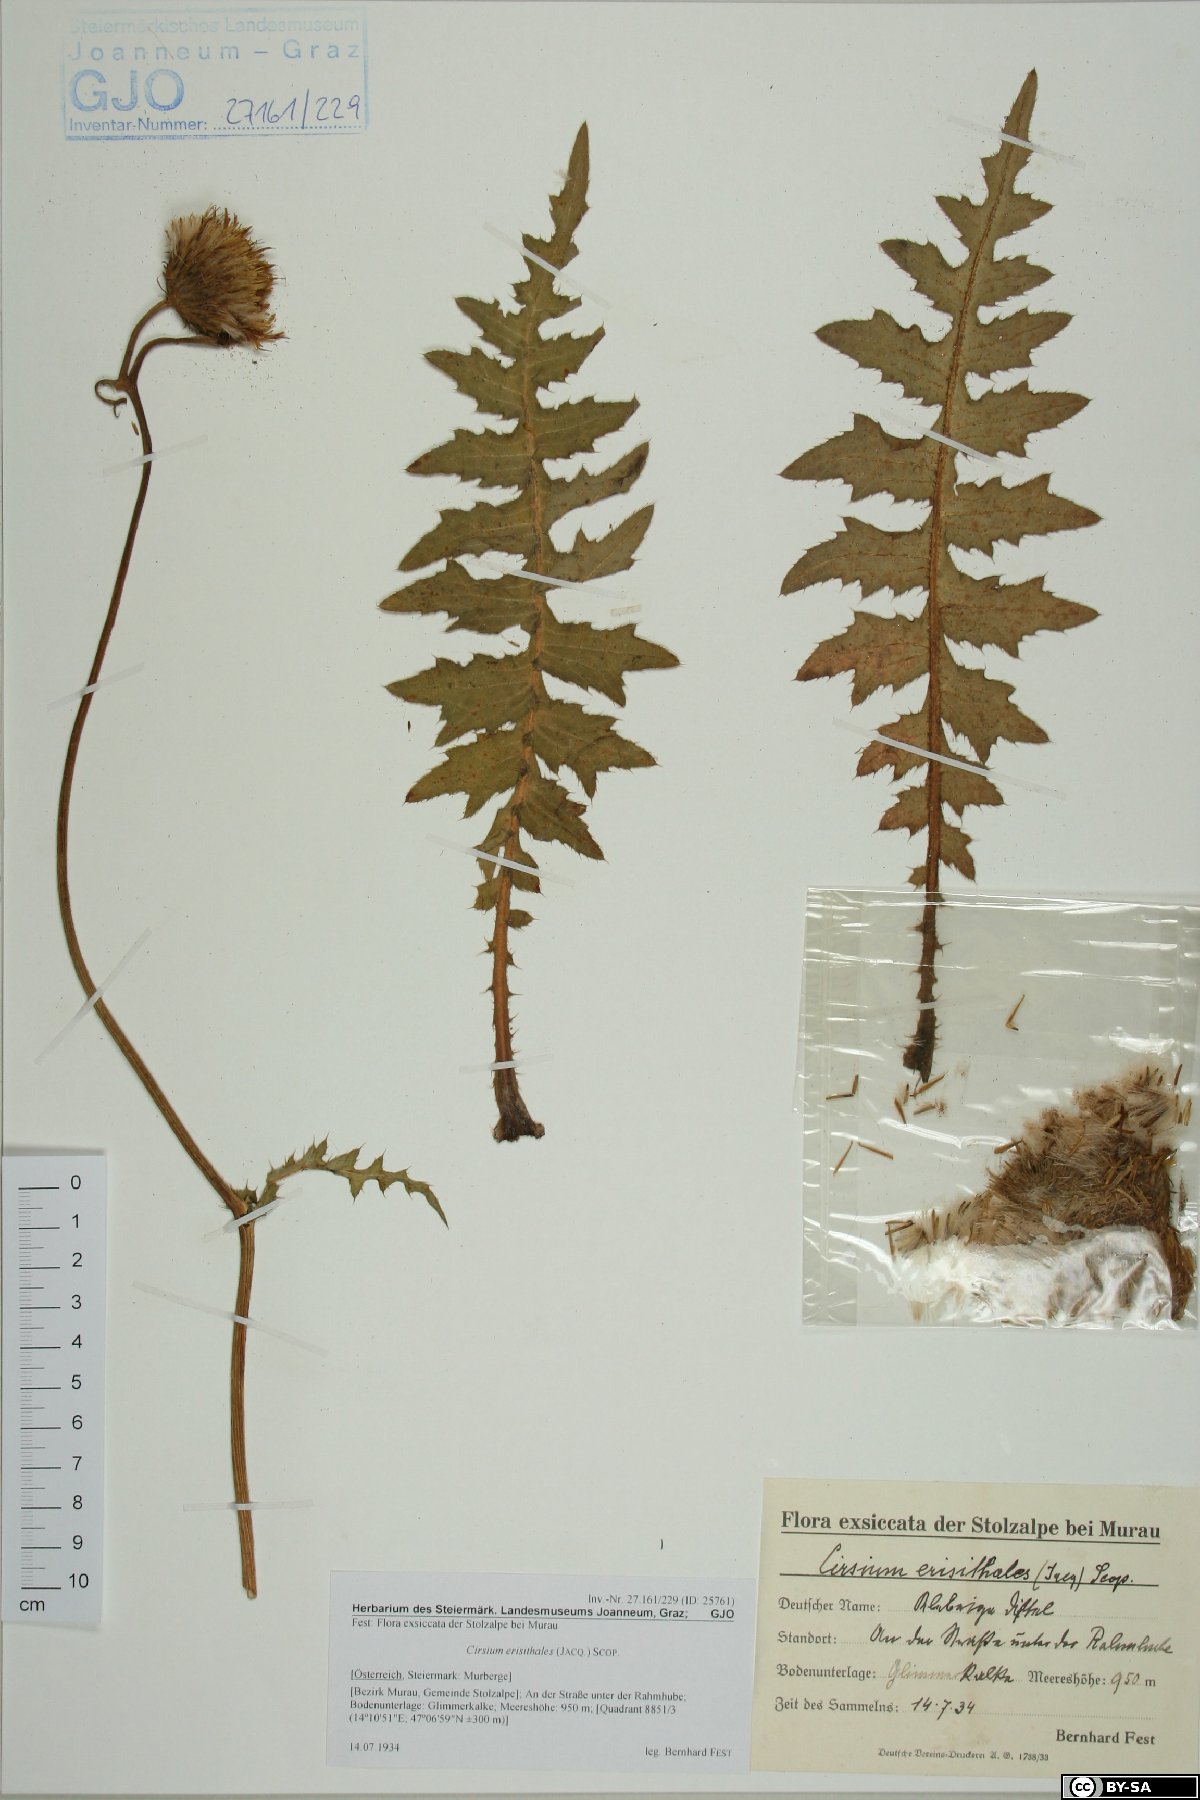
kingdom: Plantae
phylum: Tracheophyta
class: Magnoliopsida
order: Asterales
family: Asteraceae
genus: Cirsium
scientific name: Cirsium erisithales
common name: Yellow thistle
